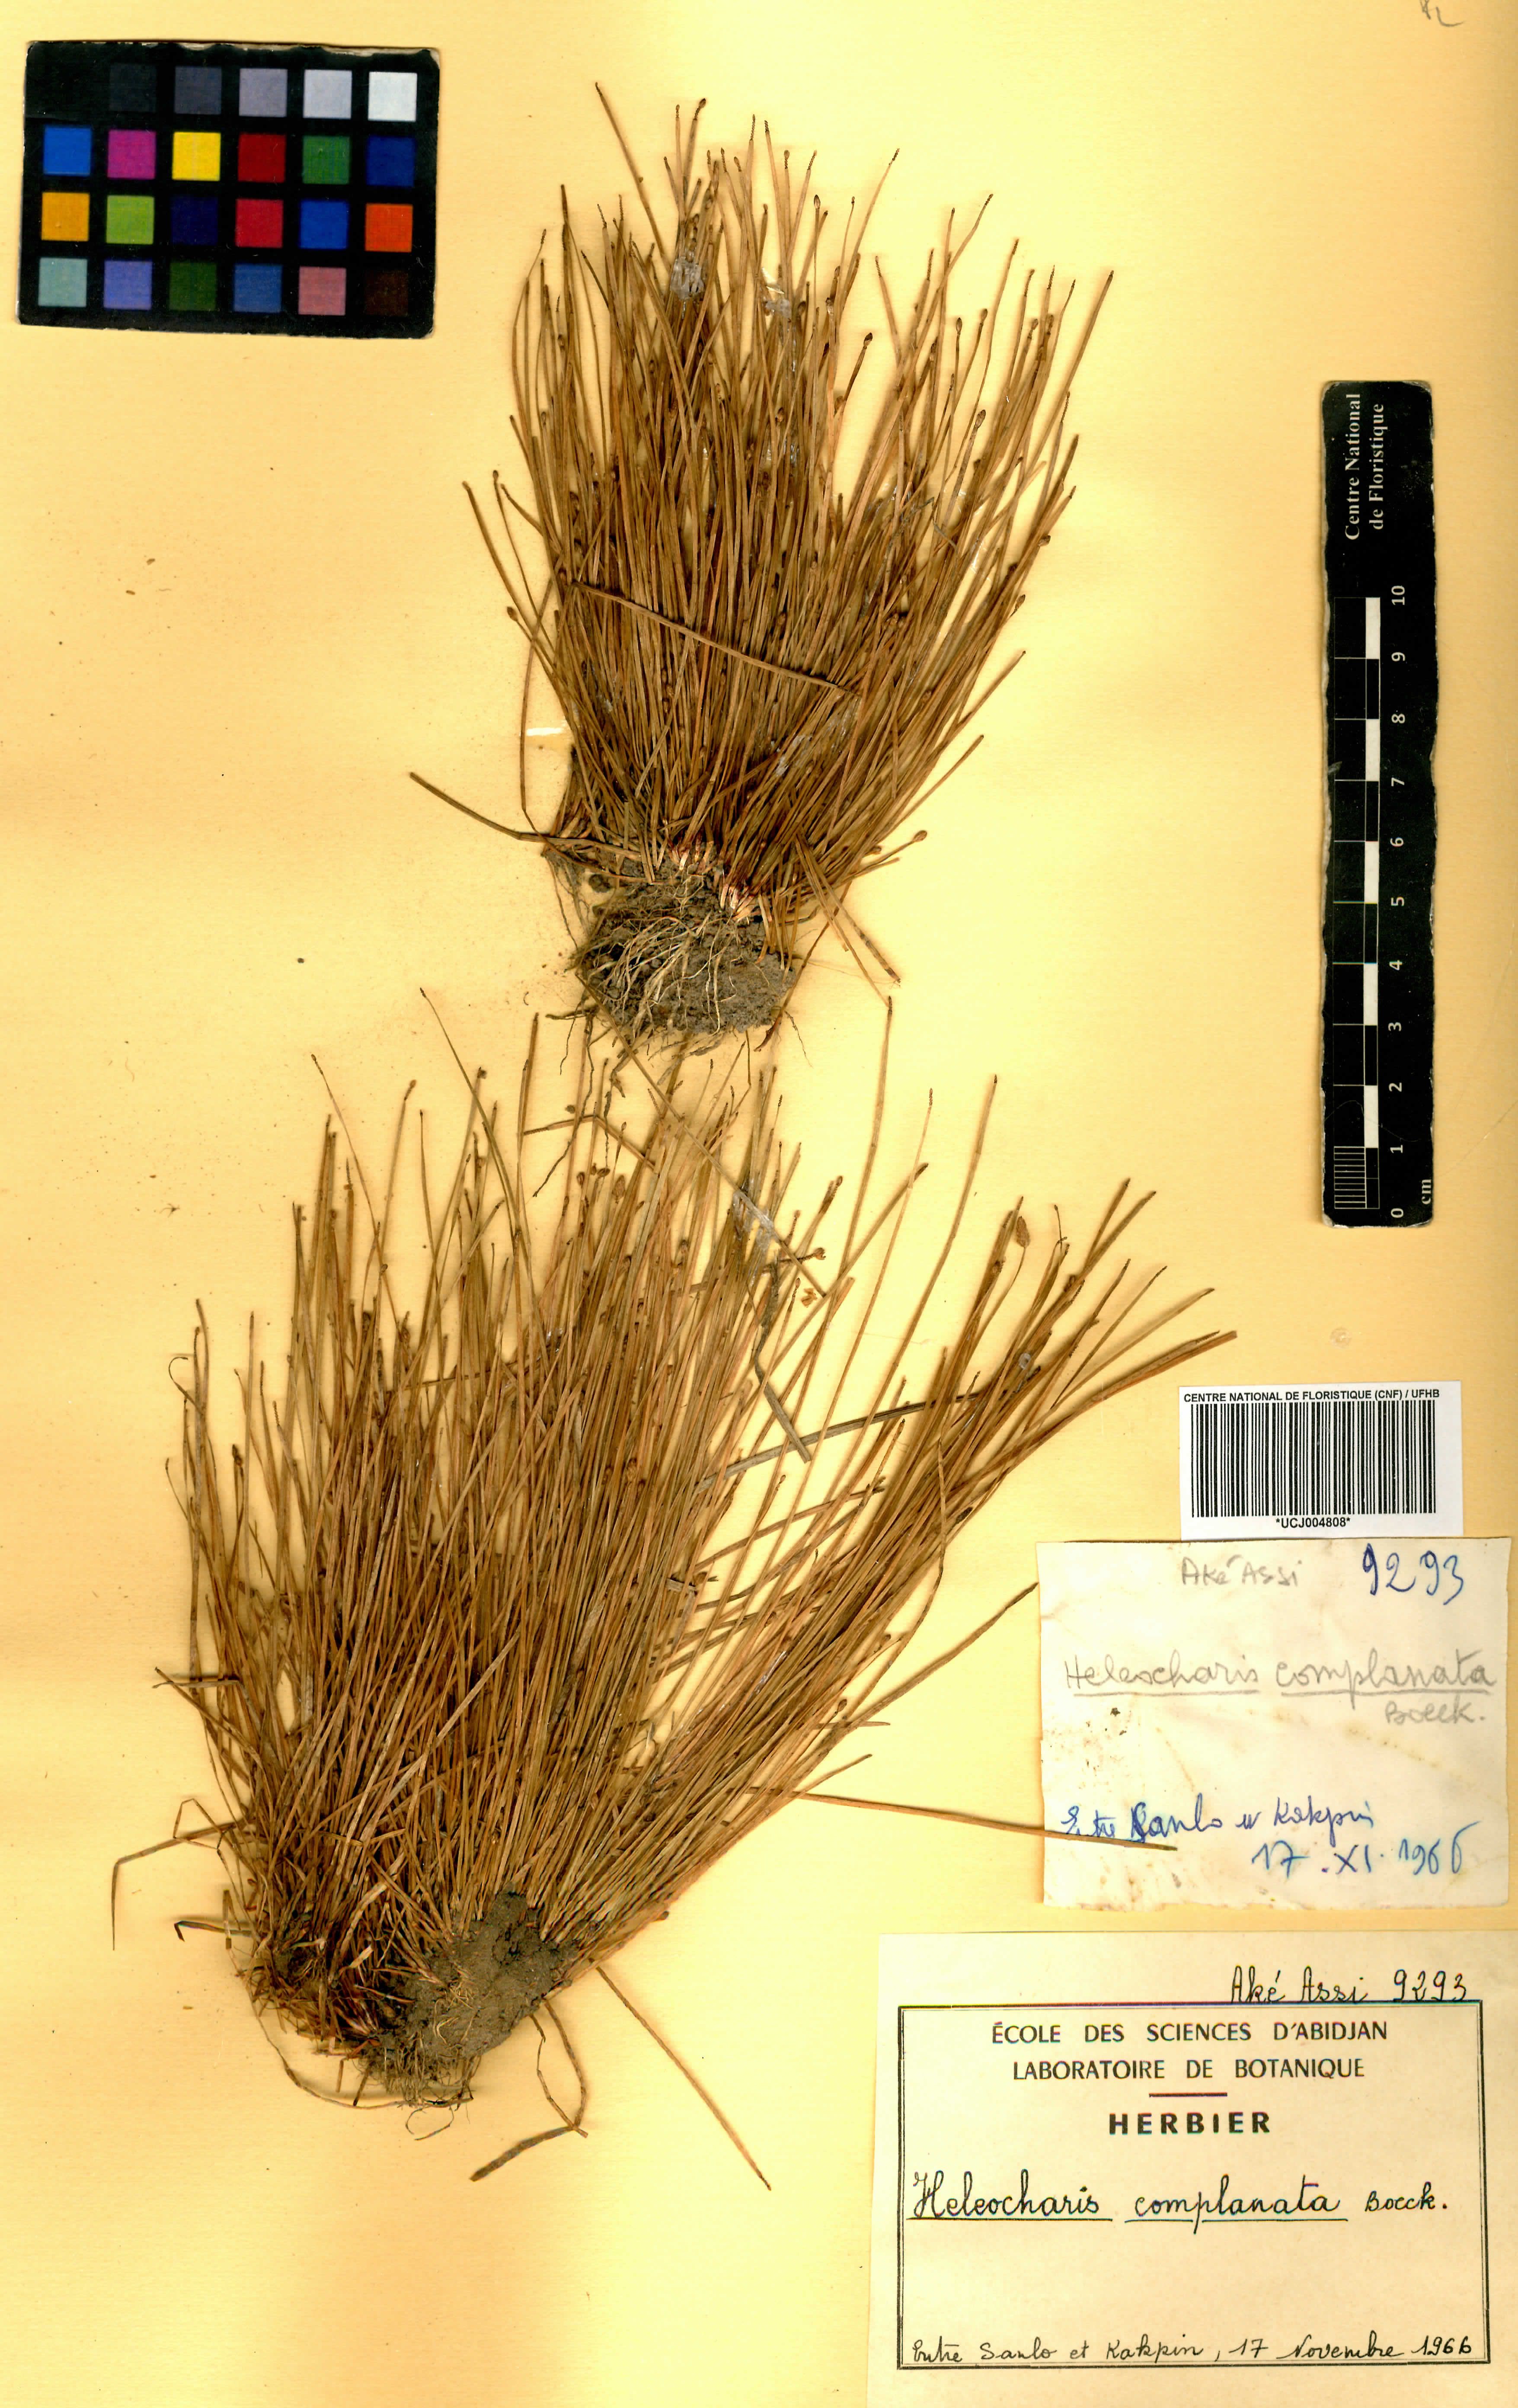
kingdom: Plantae
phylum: Tracheophyta
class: Liliopsida
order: Poales
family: Cyperaceae
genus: Eleocharis
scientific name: Eleocharis complanata
